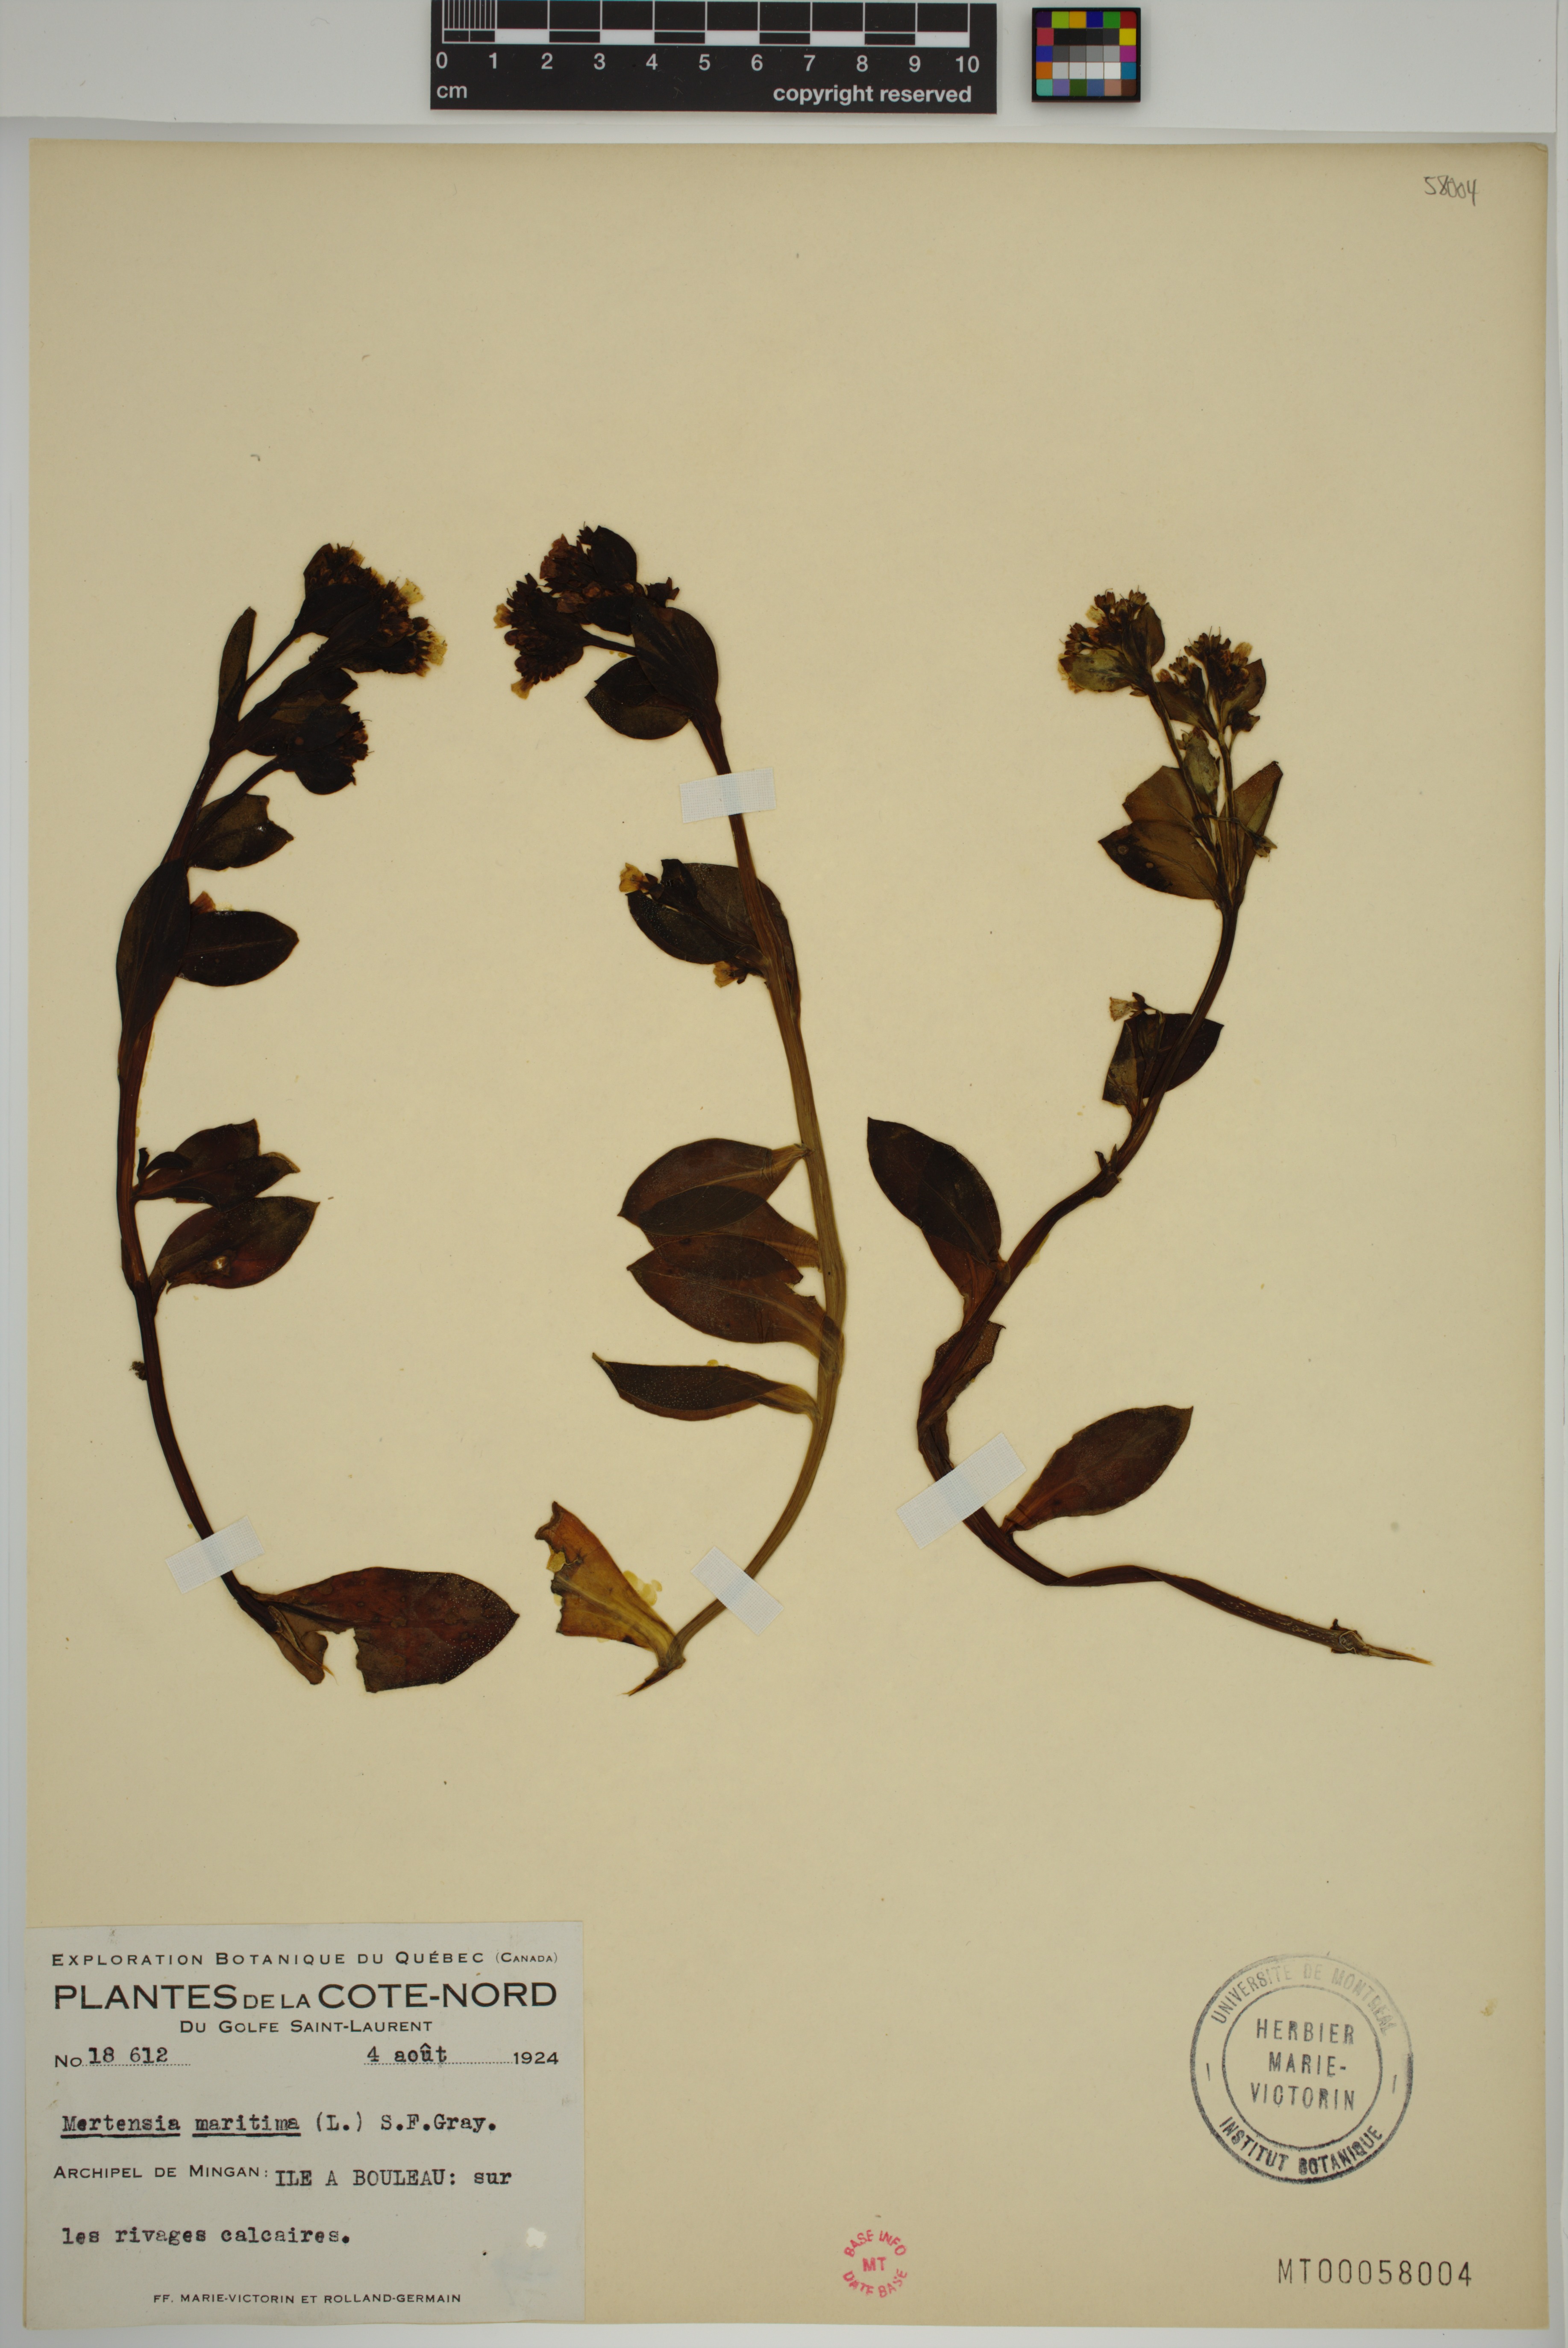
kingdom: Plantae
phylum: Tracheophyta
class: Magnoliopsida
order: Boraginales
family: Boraginaceae
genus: Mertensia
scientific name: Mertensia maritima
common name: Oysterplant
